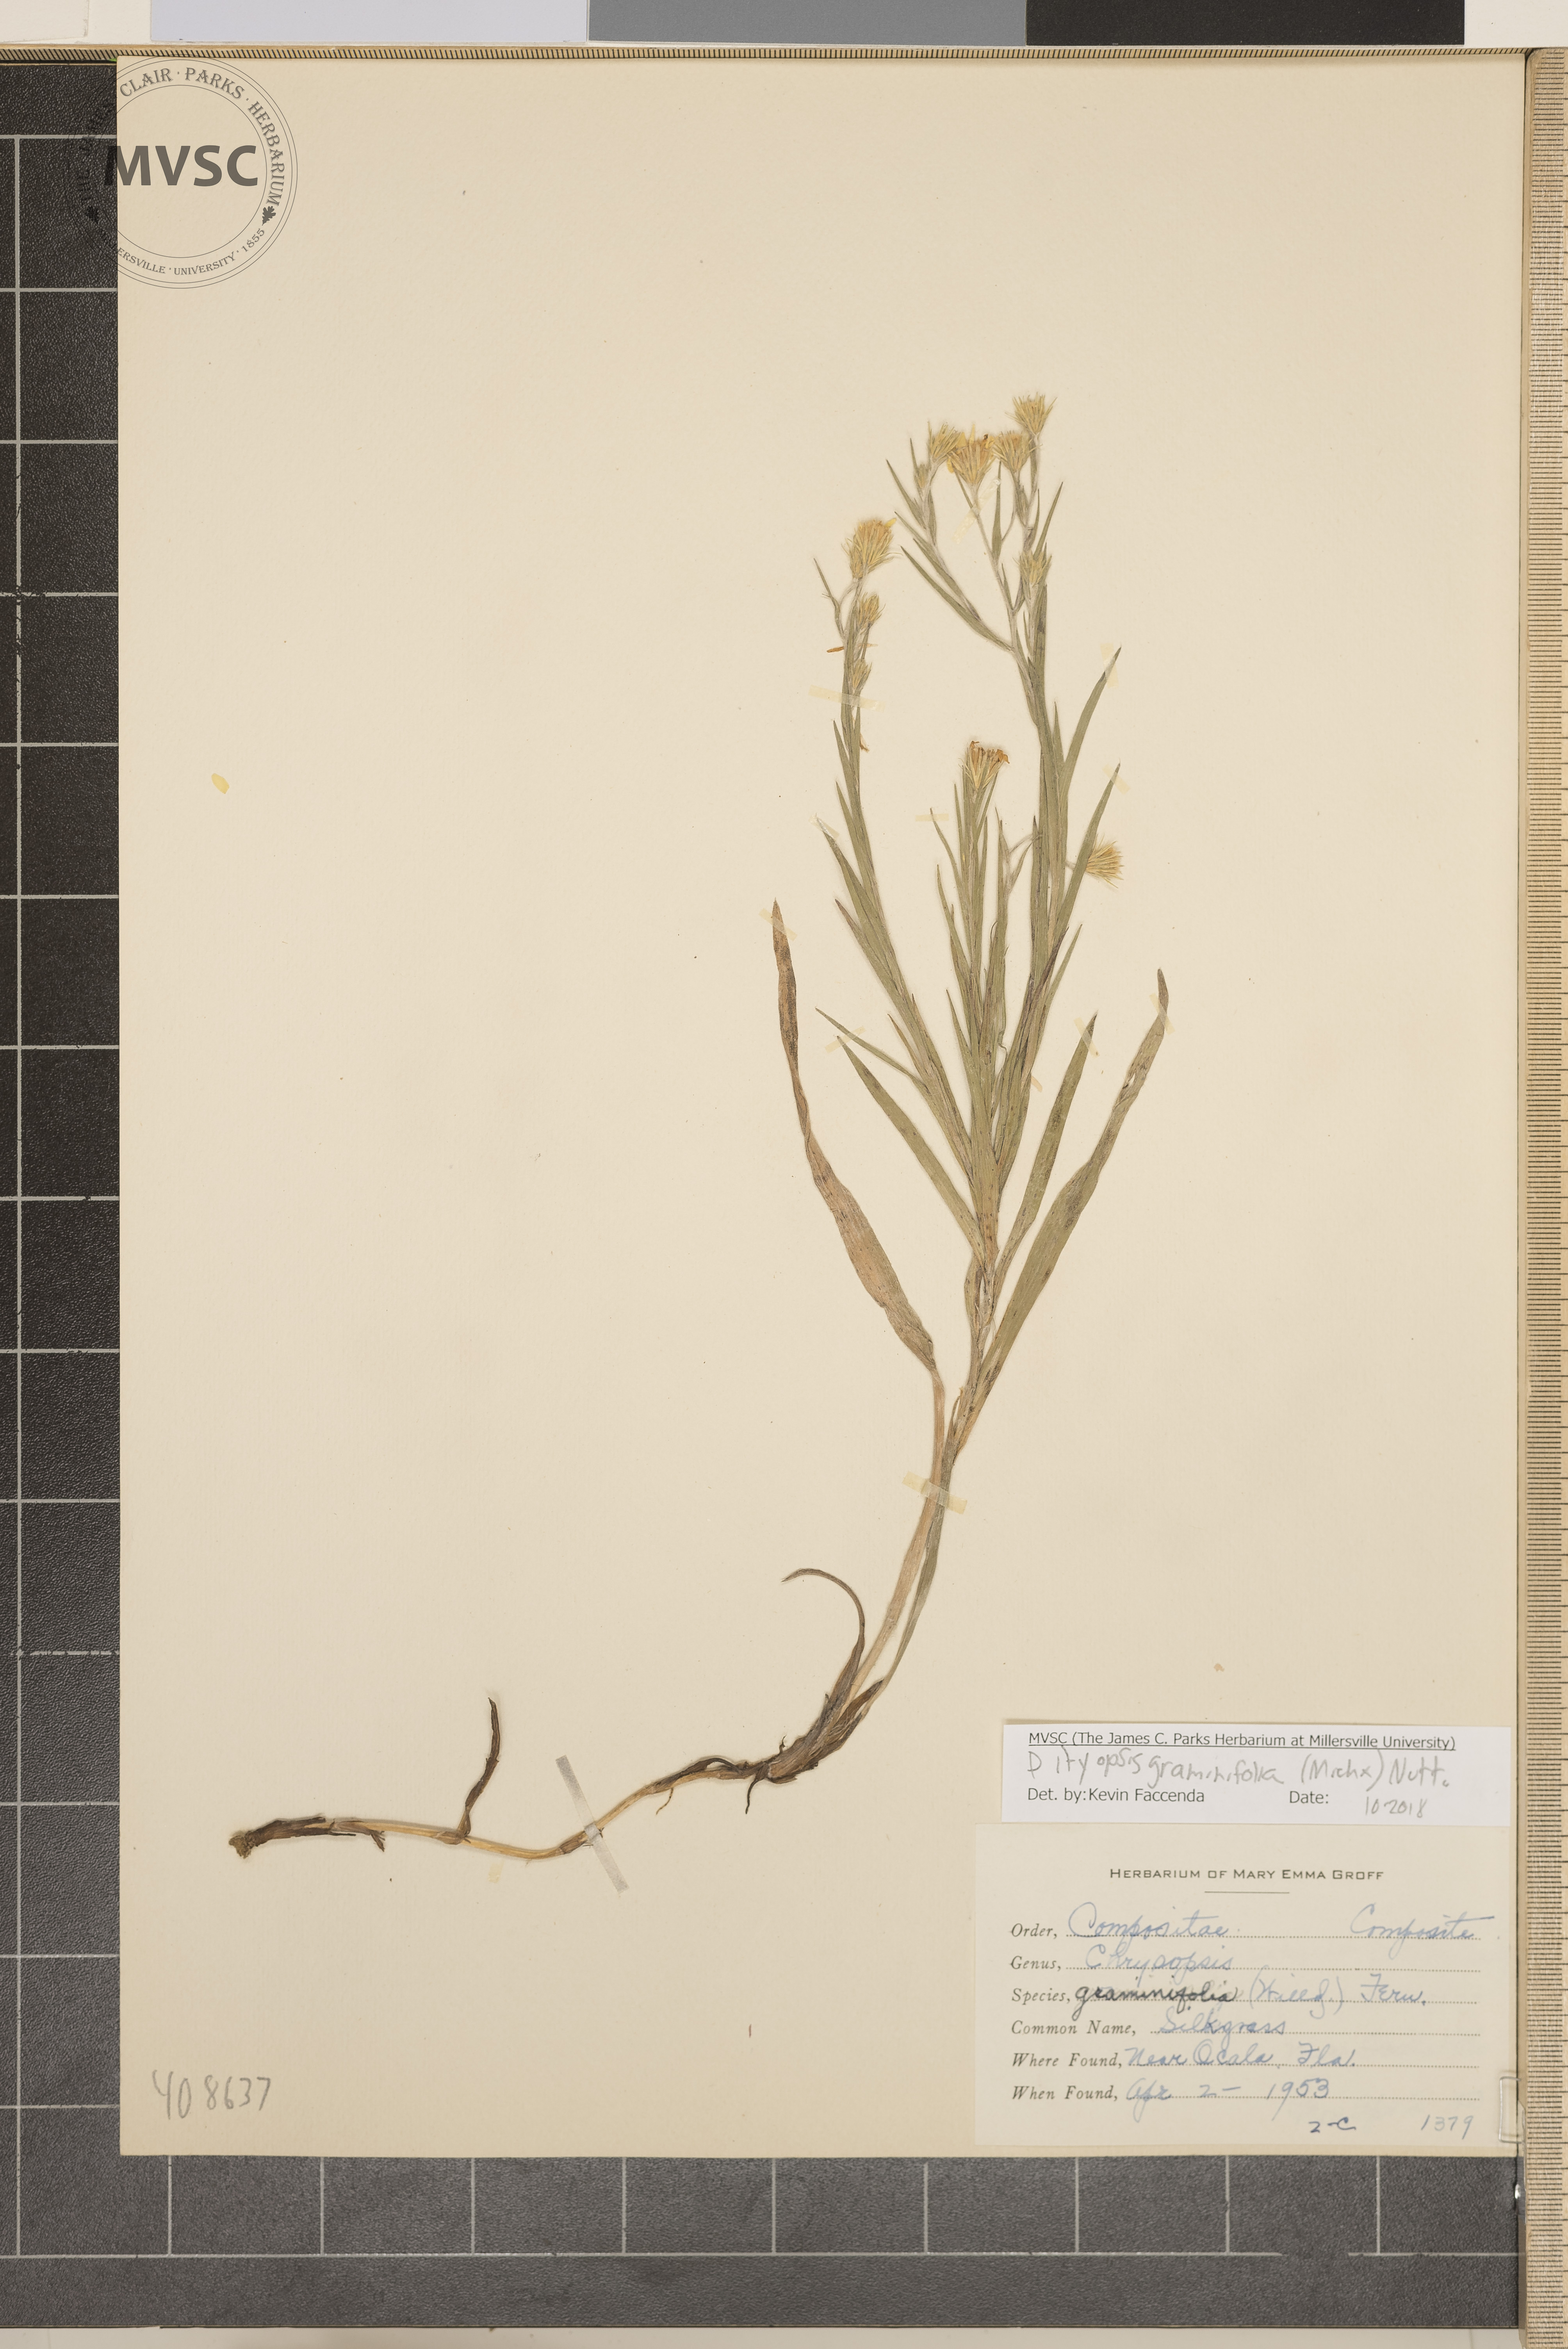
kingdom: Plantae
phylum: Tracheophyta
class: Magnoliopsida
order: Asterales
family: Asteraceae
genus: Pityopsis
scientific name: Pityopsis graminifolia
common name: Silkgrass
